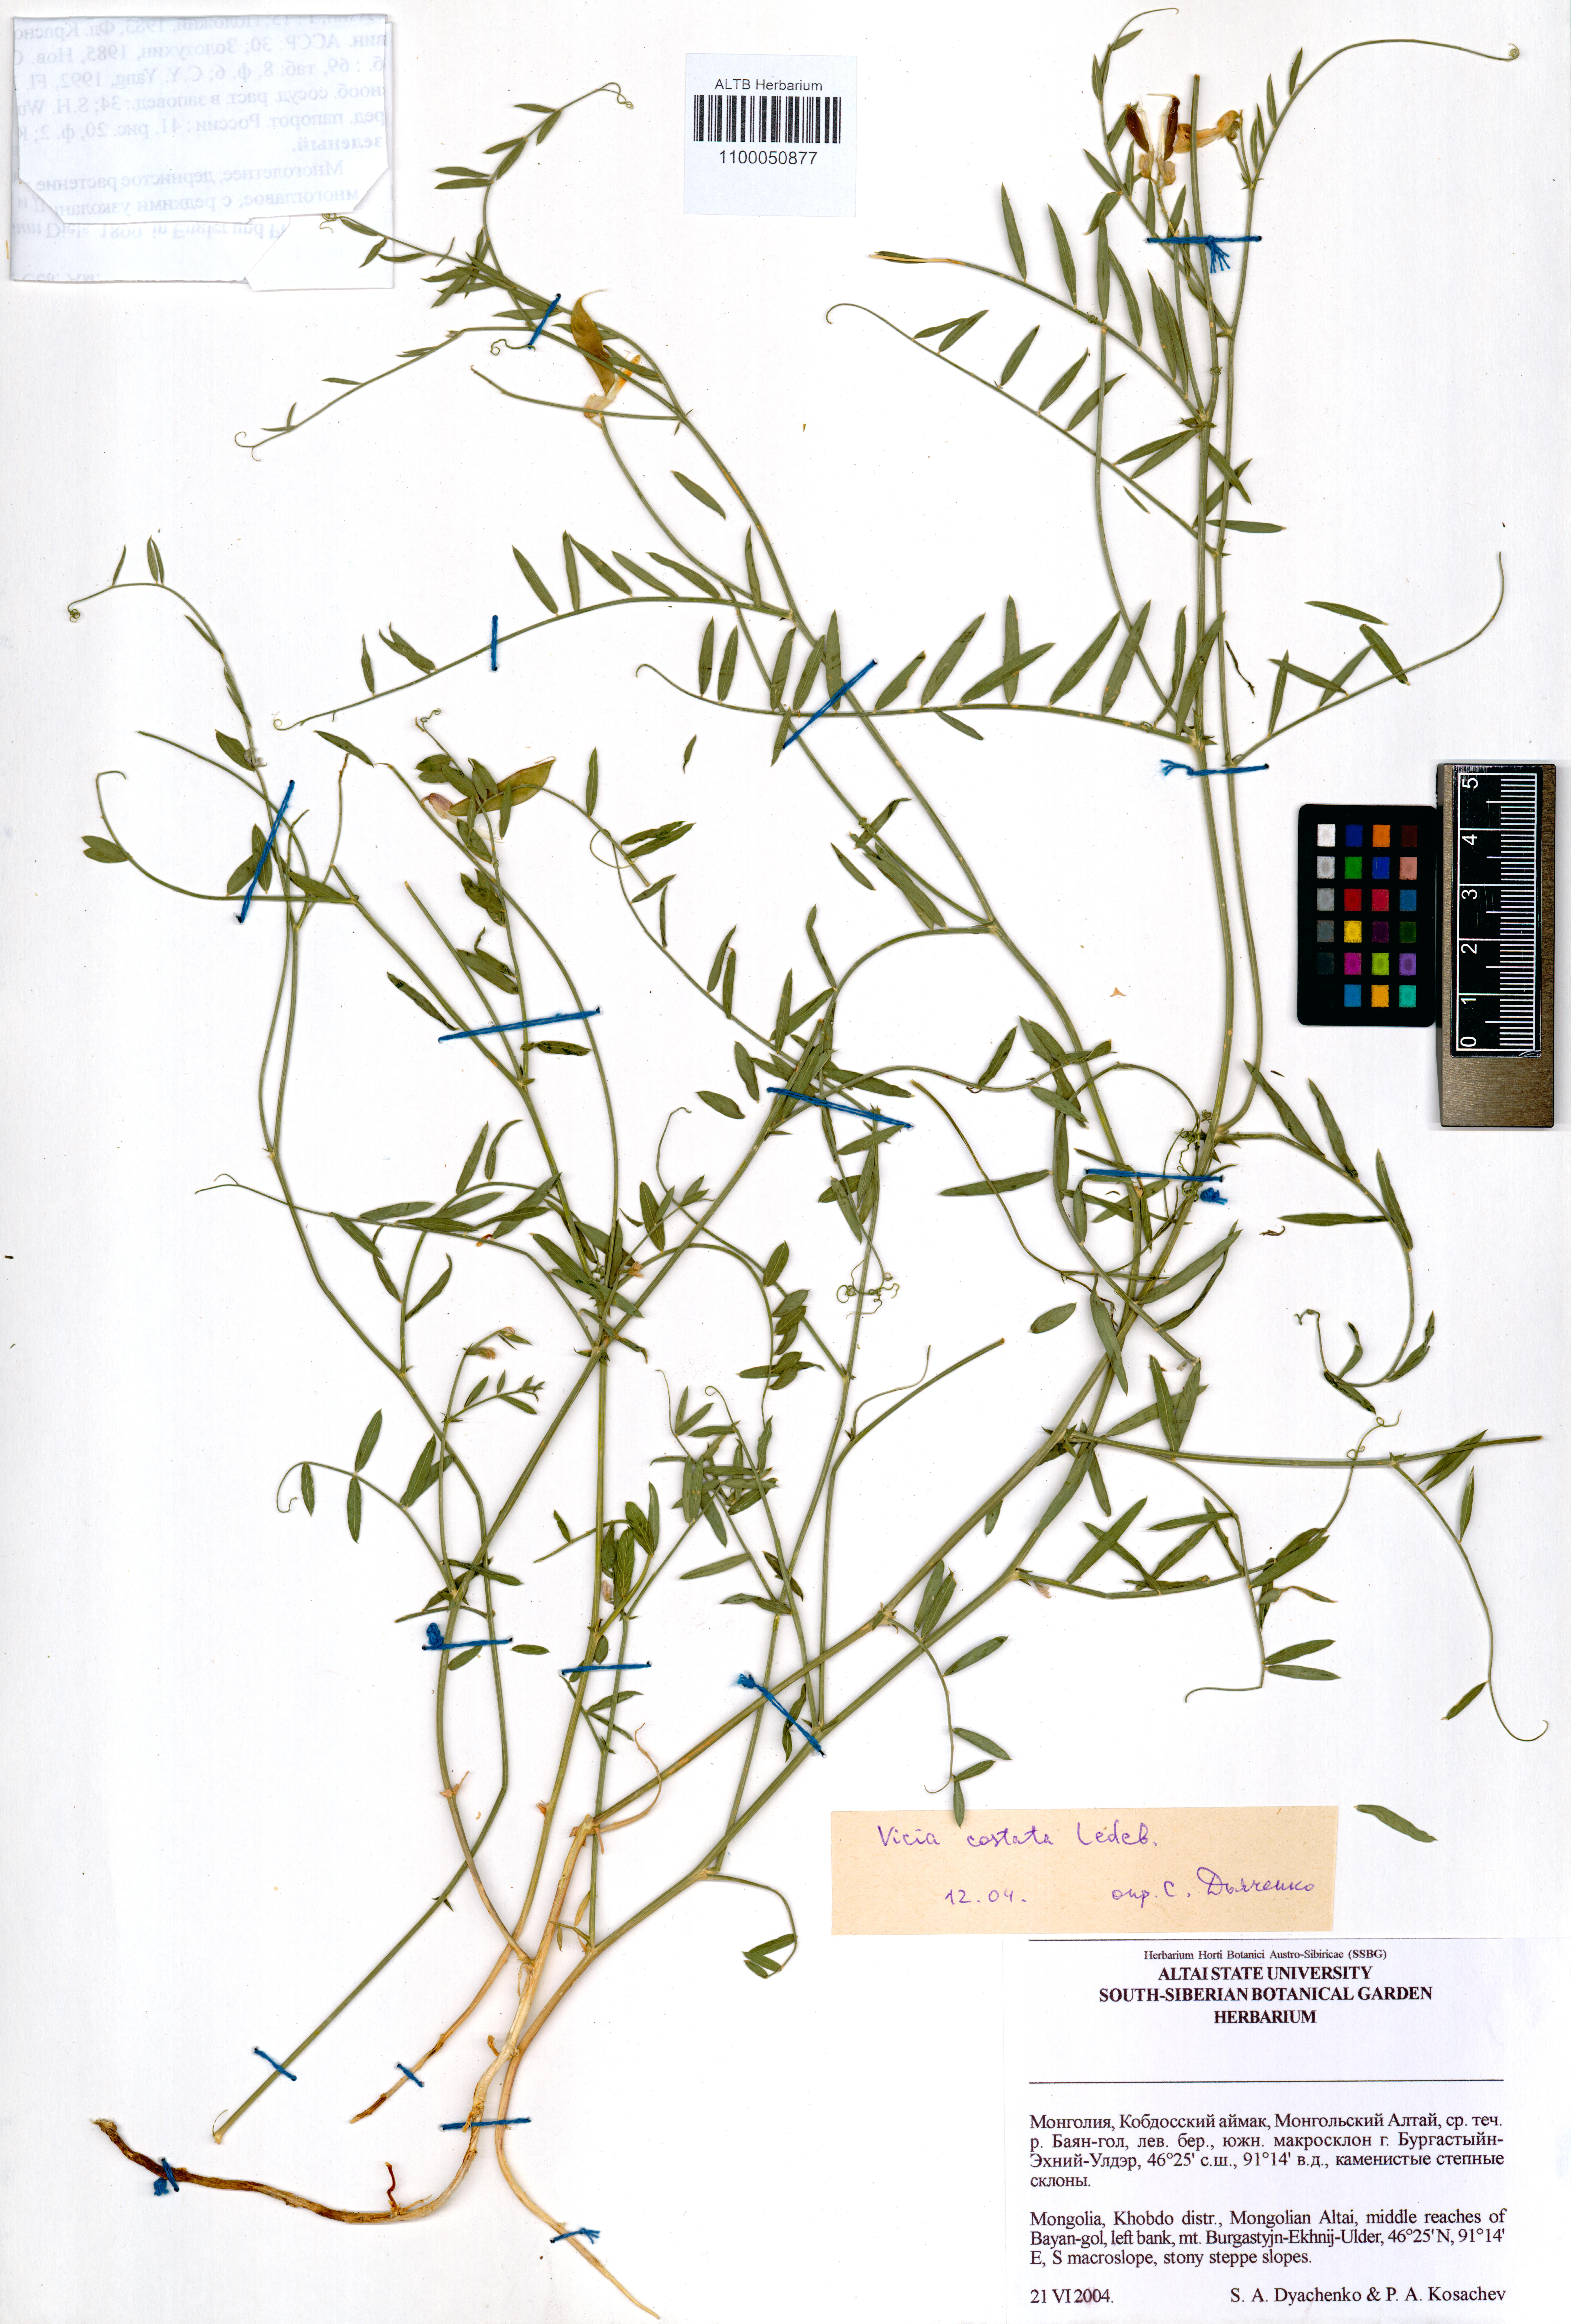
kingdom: Plantae
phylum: Tracheophyta
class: Magnoliopsida
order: Fabales
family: Fabaceae
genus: Vicia
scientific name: Vicia costata
